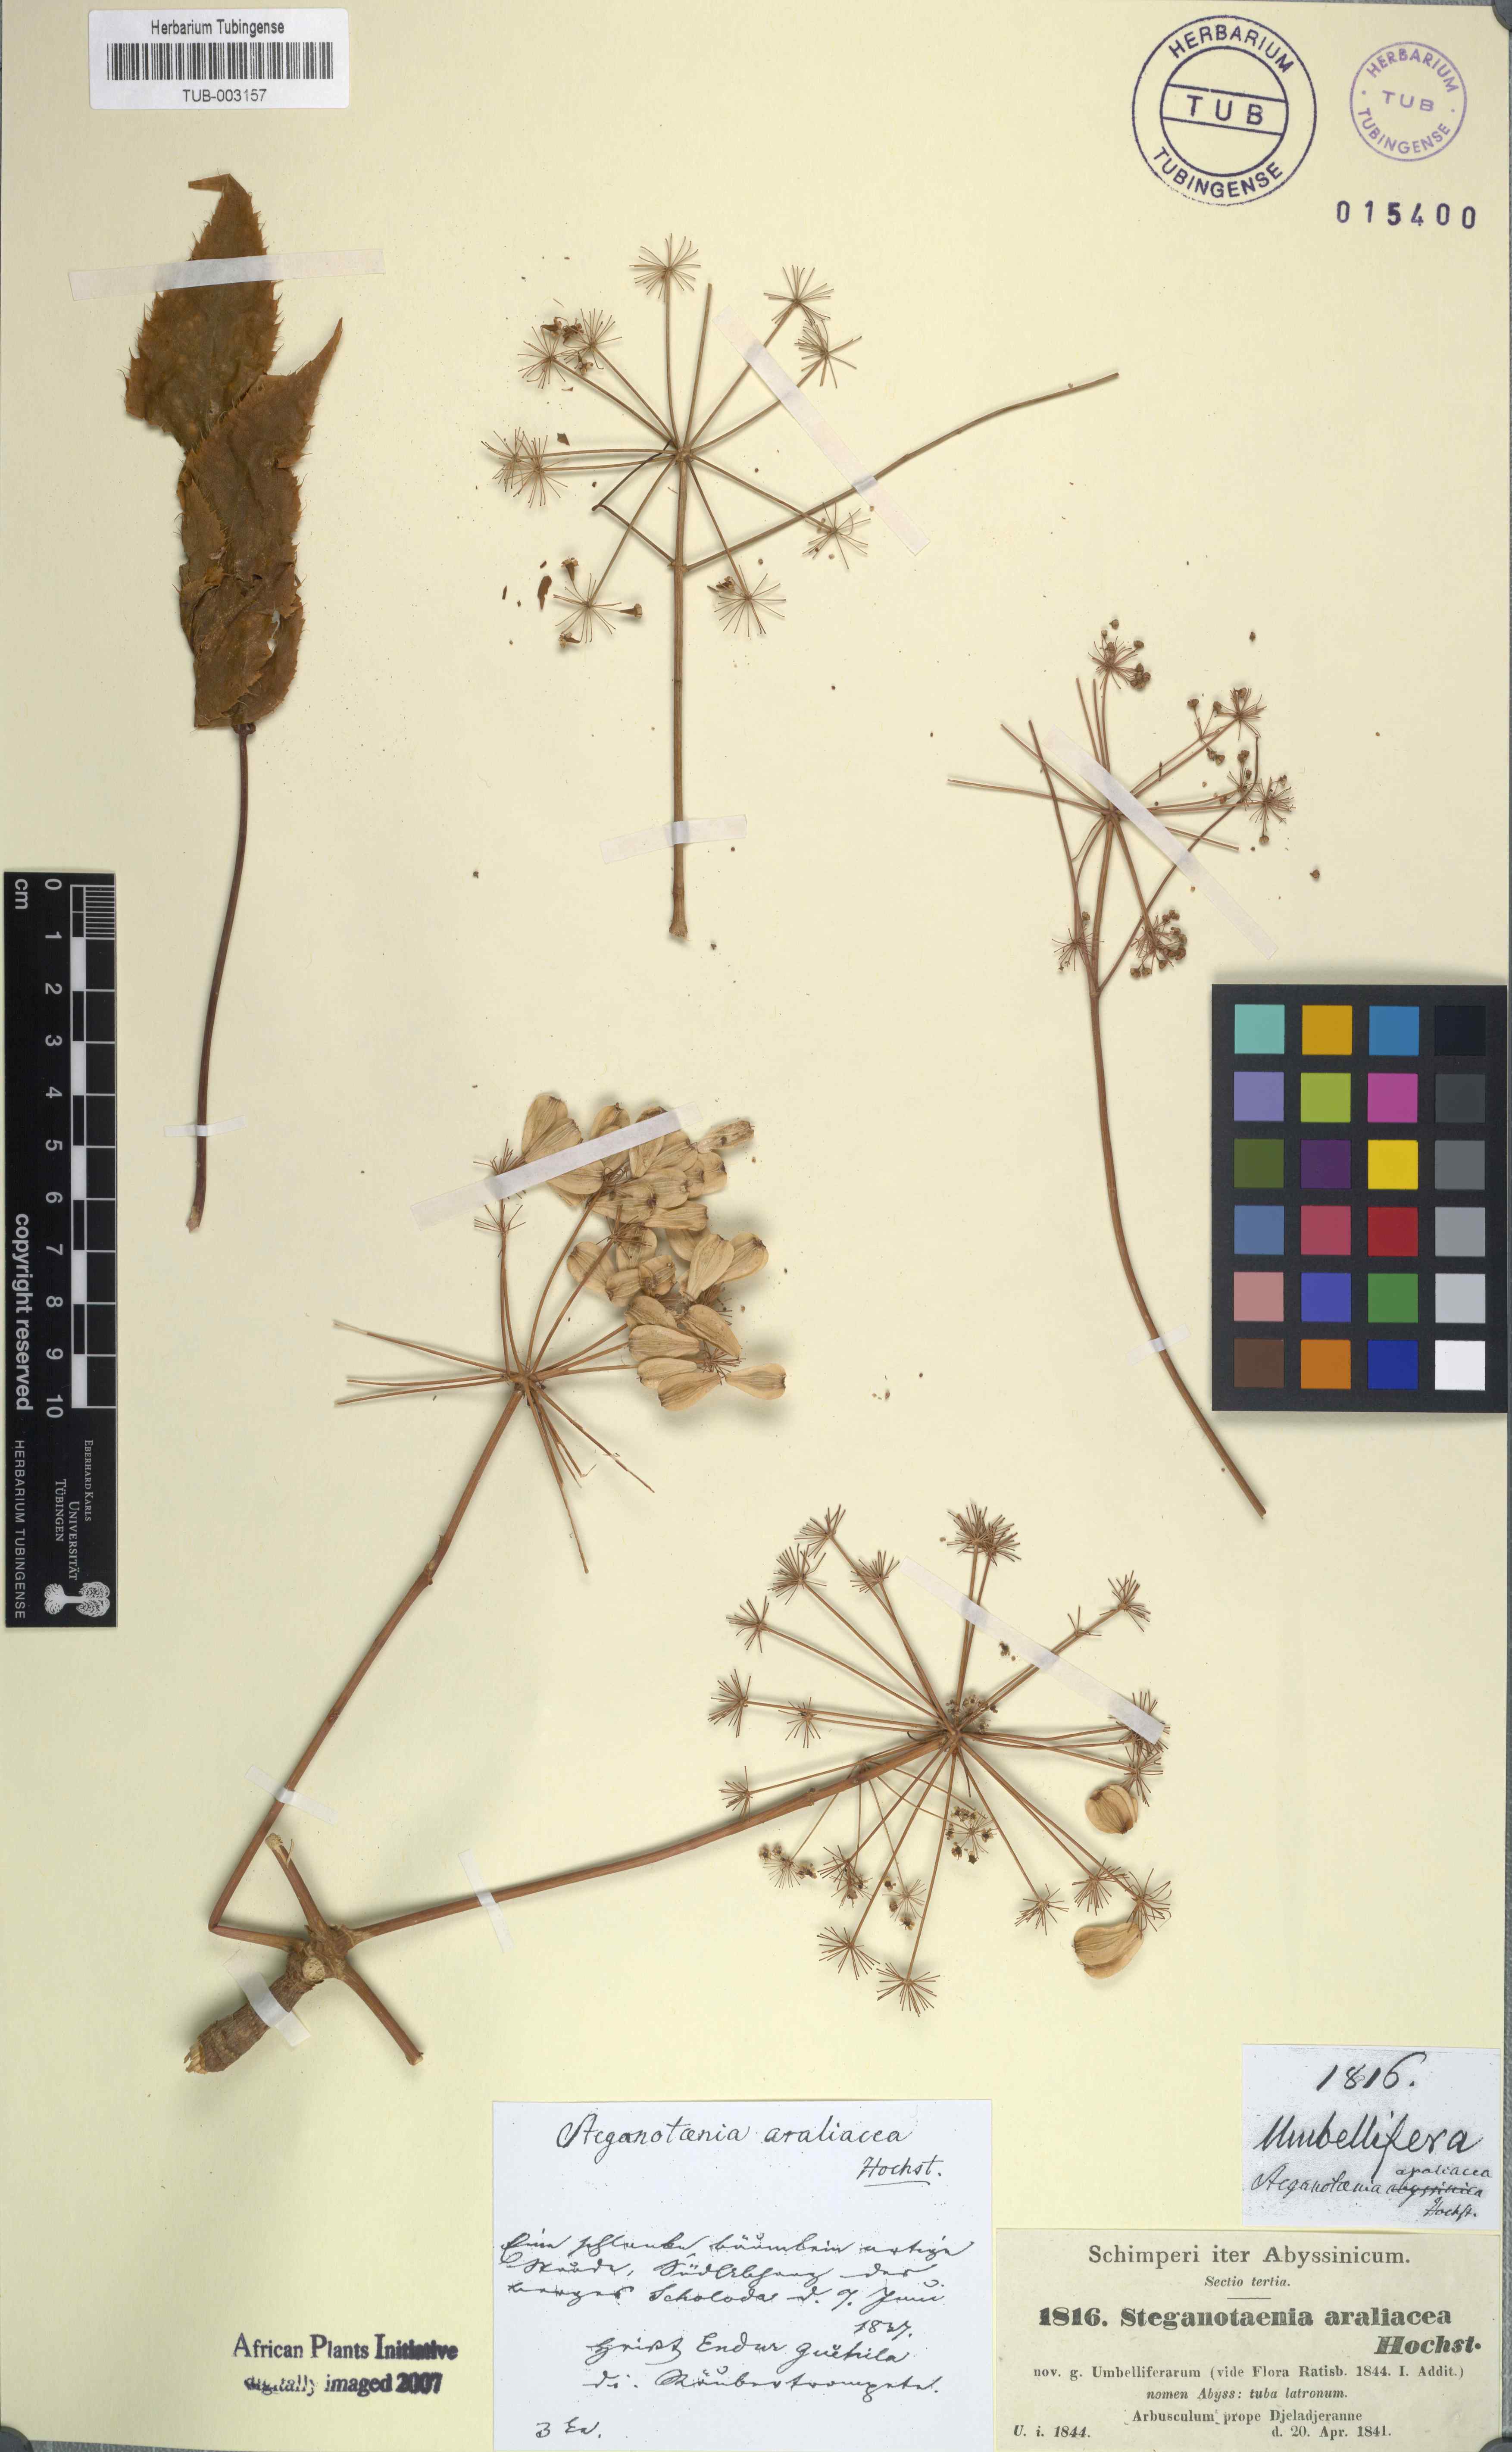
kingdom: Plantae
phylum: Tracheophyta
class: Magnoliopsida
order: Apiales
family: Apiaceae
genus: Steganotaenia
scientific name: Steganotaenia araliacea
